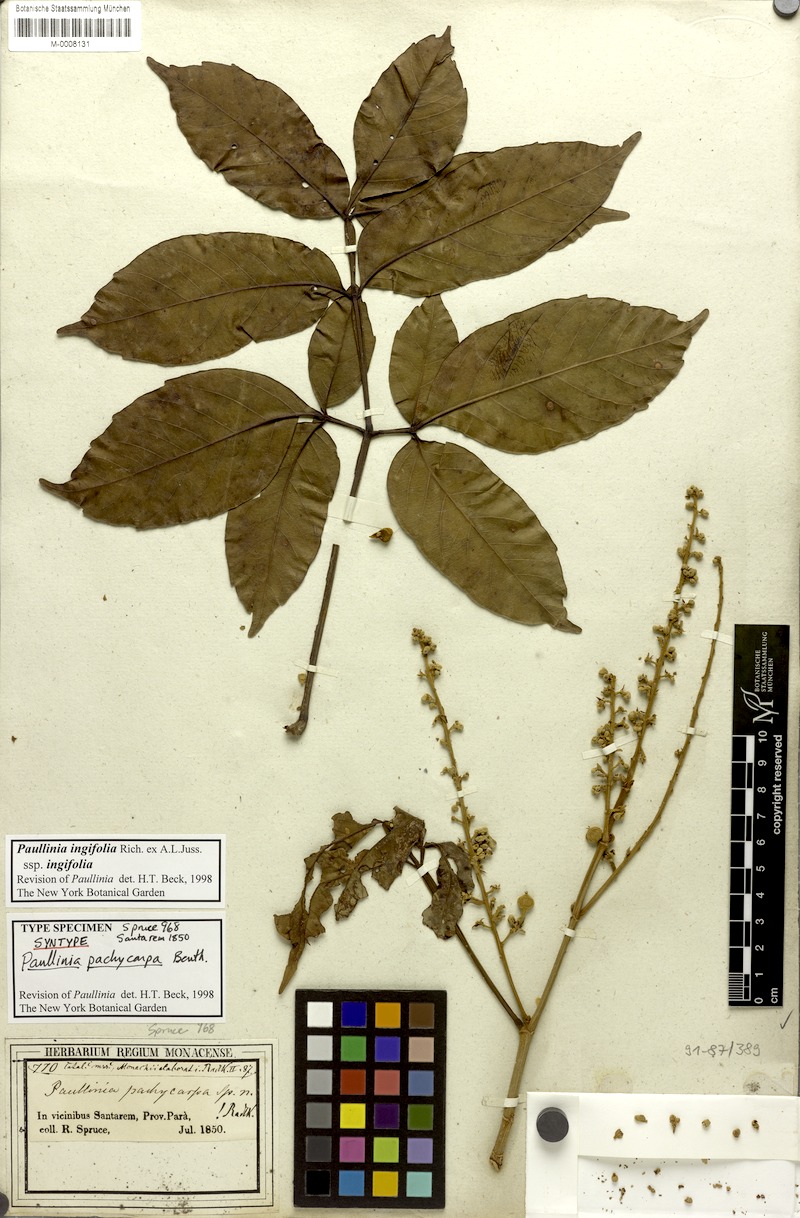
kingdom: Plantae
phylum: Tracheophyta
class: Magnoliopsida
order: Sapindales
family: Sapindaceae
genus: Paullinia
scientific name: Paullinia ingifolia
